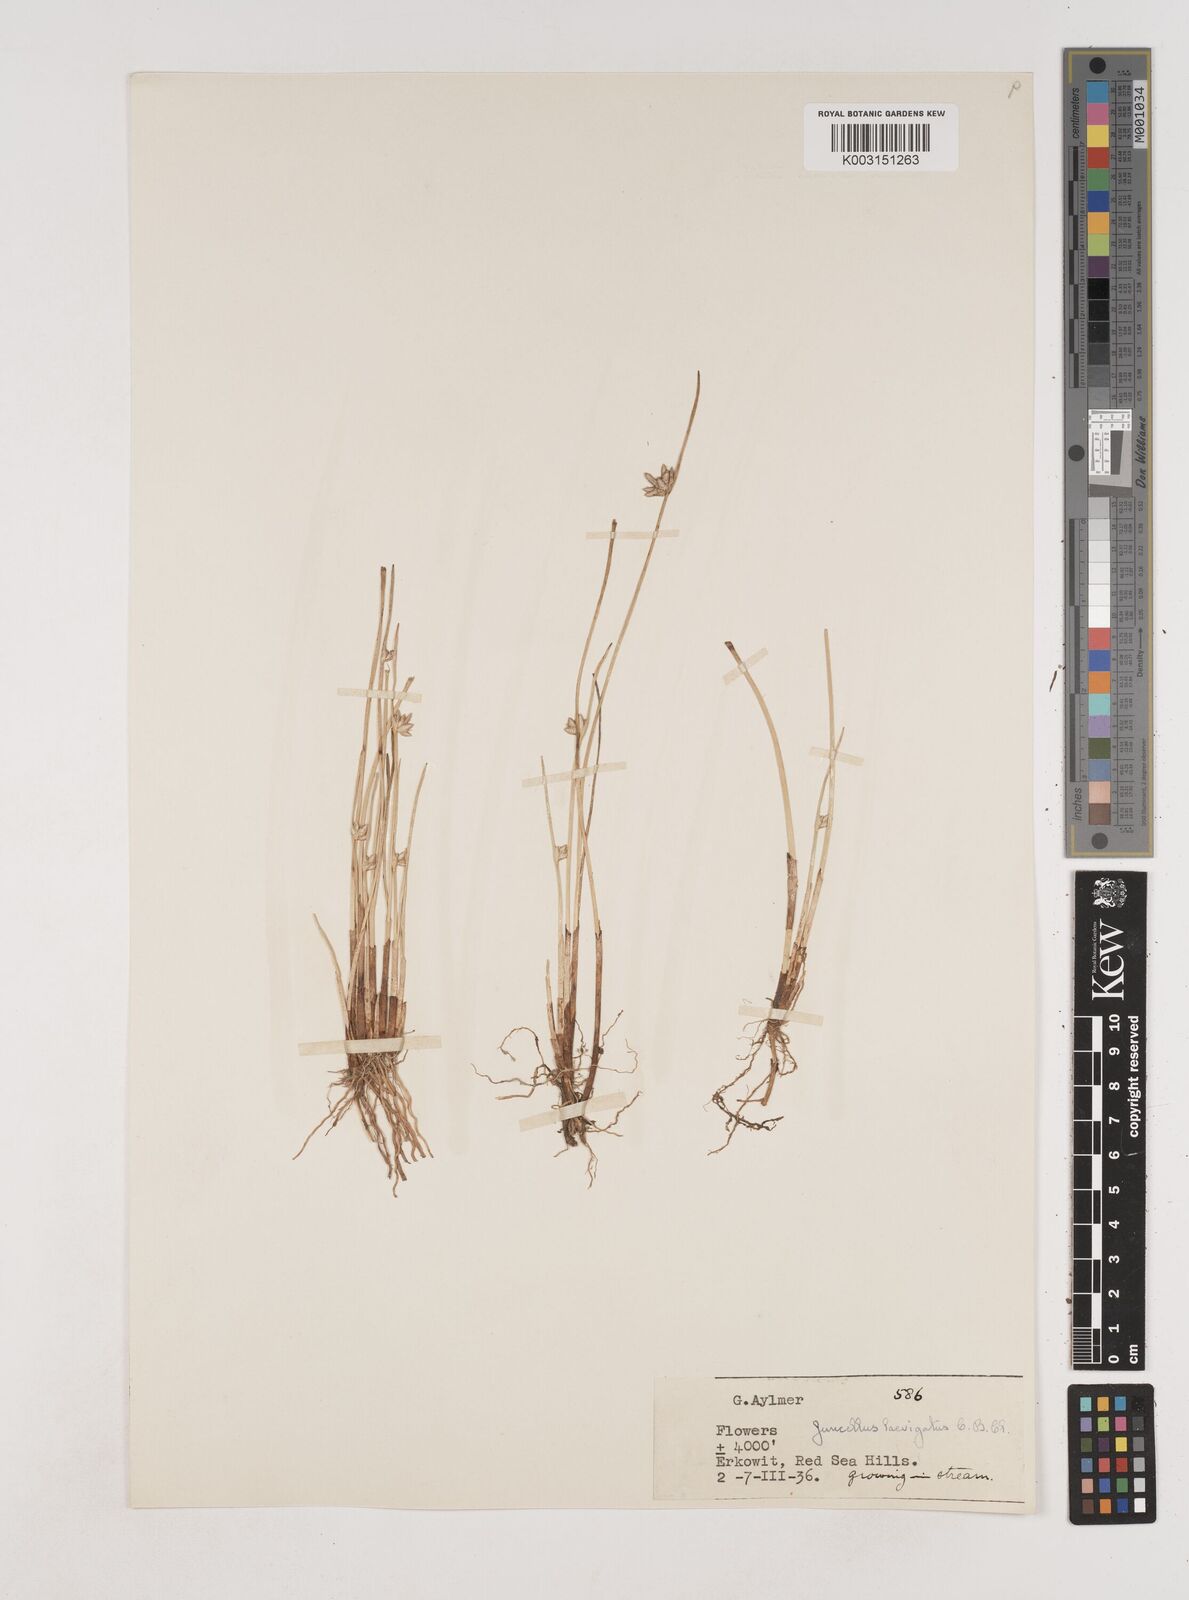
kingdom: Plantae
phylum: Tracheophyta
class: Liliopsida
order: Poales
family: Cyperaceae
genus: Cyperus
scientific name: Cyperus laevigatus
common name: Smooth flat sedge
